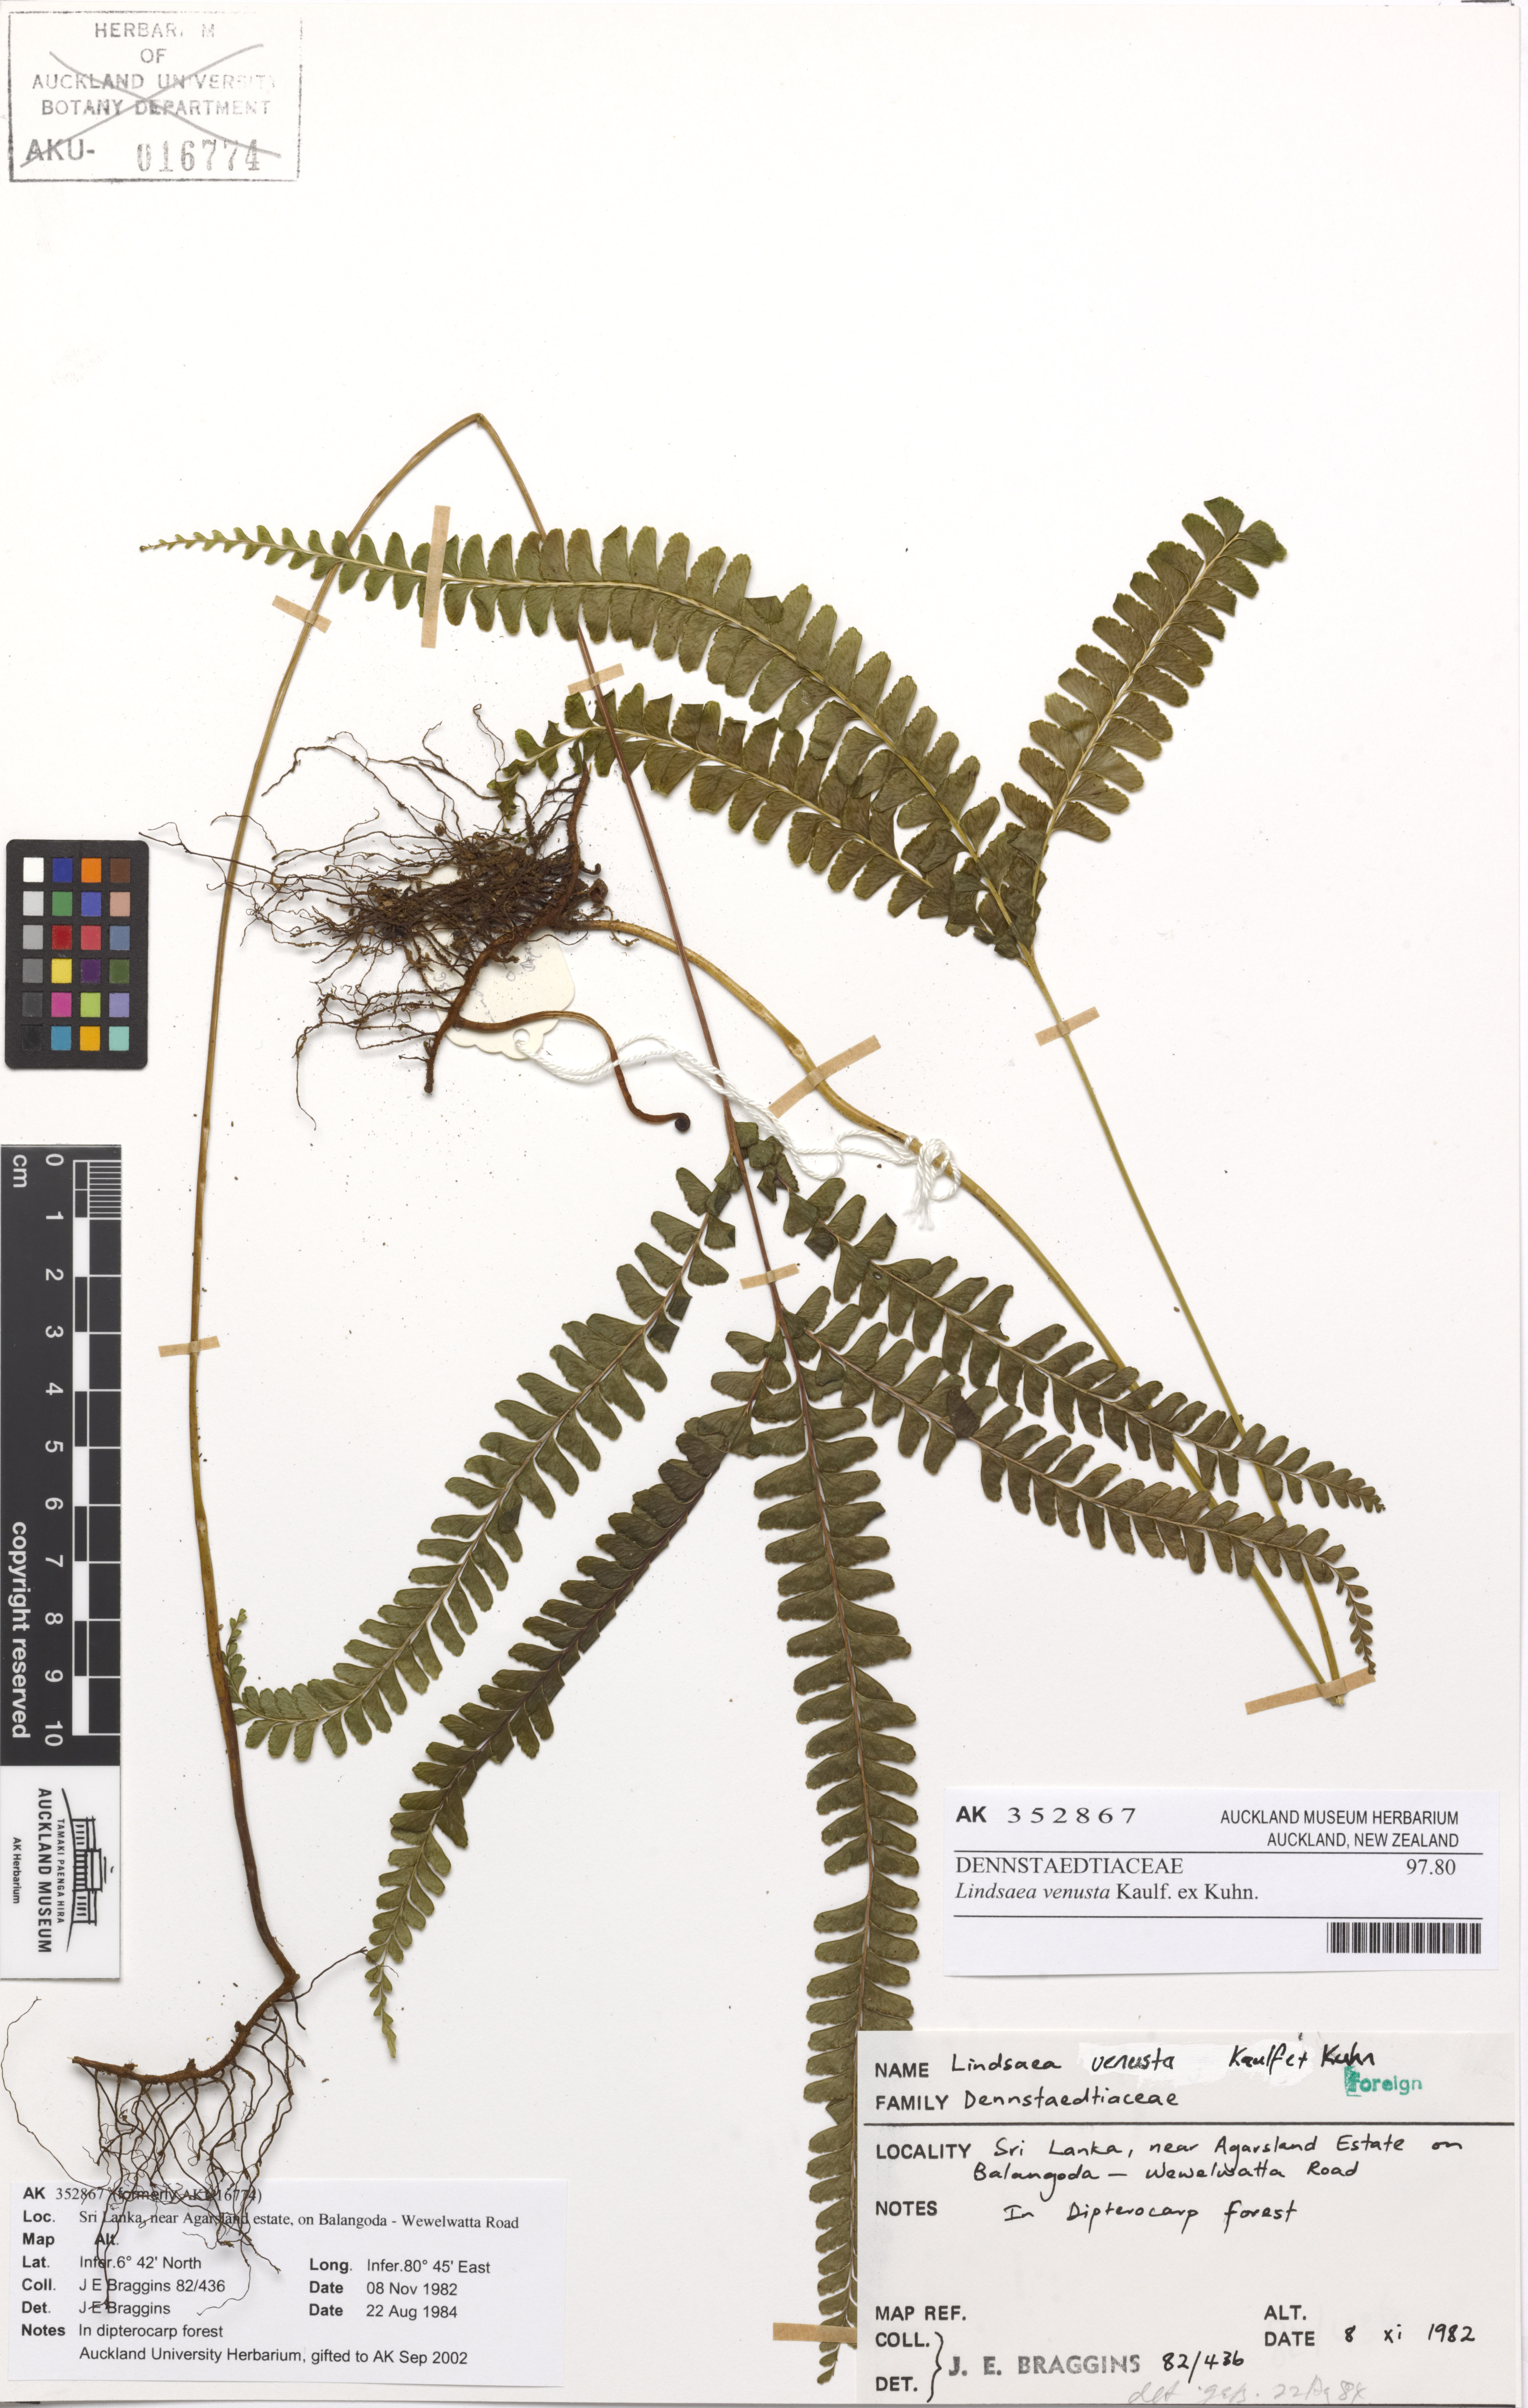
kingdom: Plantae
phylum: Tracheophyta
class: Polypodiopsida
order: Polypodiales
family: Lindsaeaceae
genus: Lindsaea
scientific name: Lindsaea venusta
